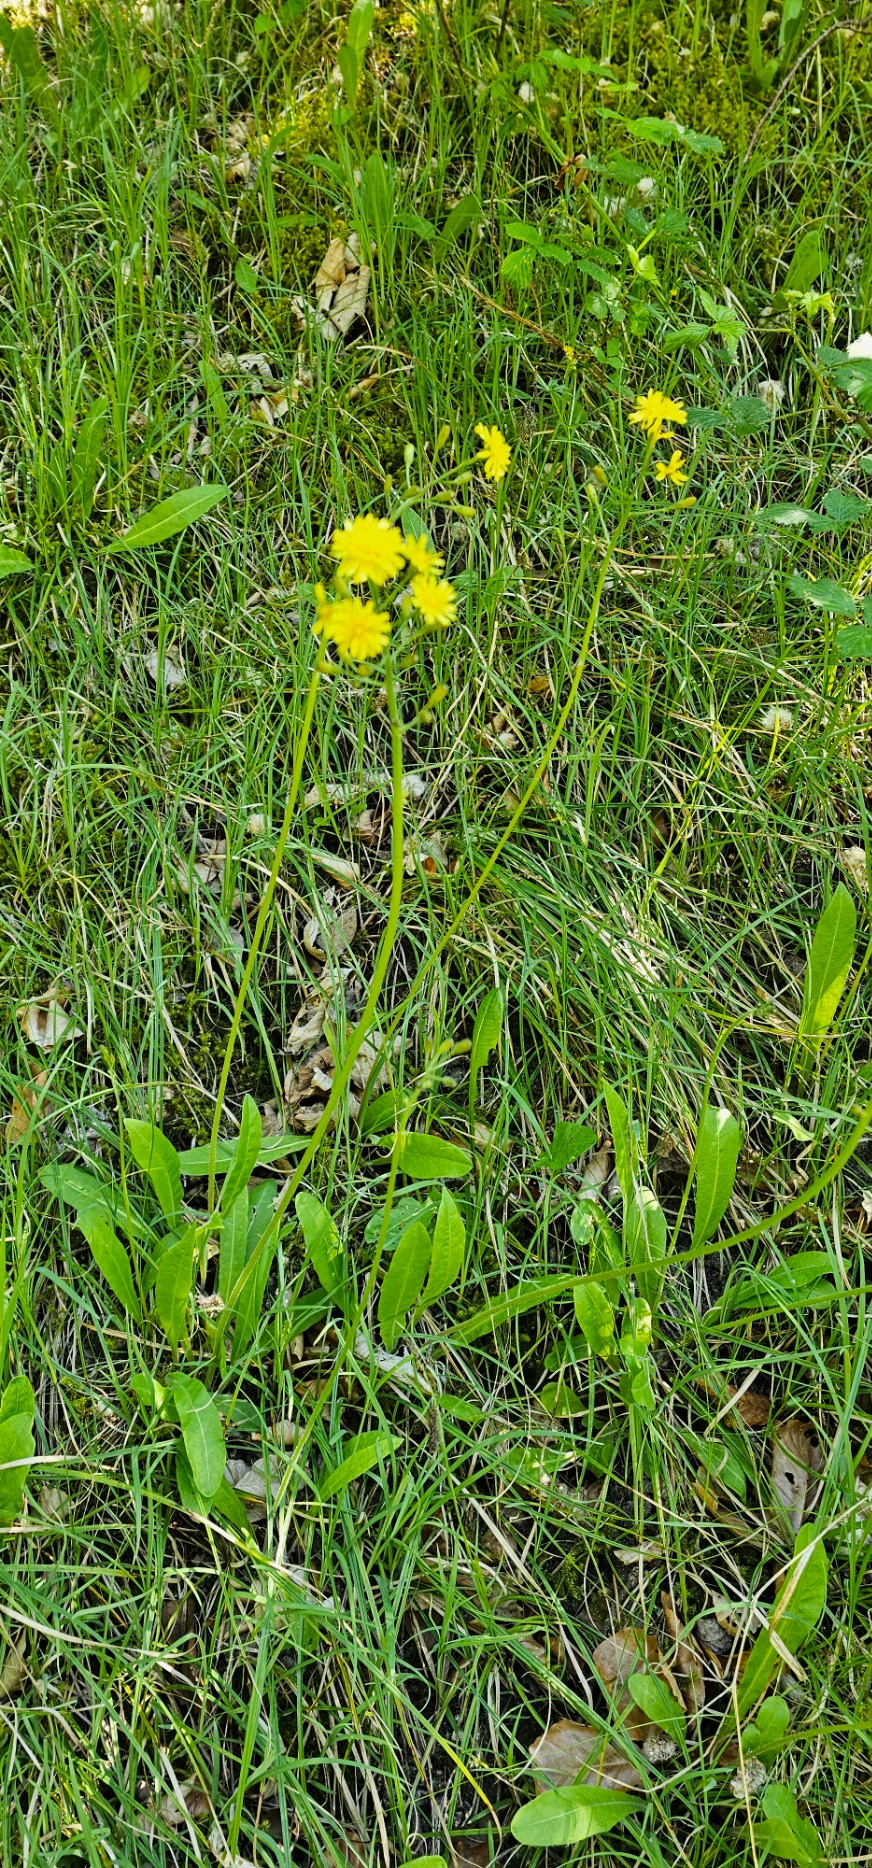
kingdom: Plantae
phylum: Tracheophyta
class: Magnoliopsida
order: Asterales
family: Asteraceae
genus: Crepis
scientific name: Crepis praemorsa
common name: Afbidt høgeskæg
